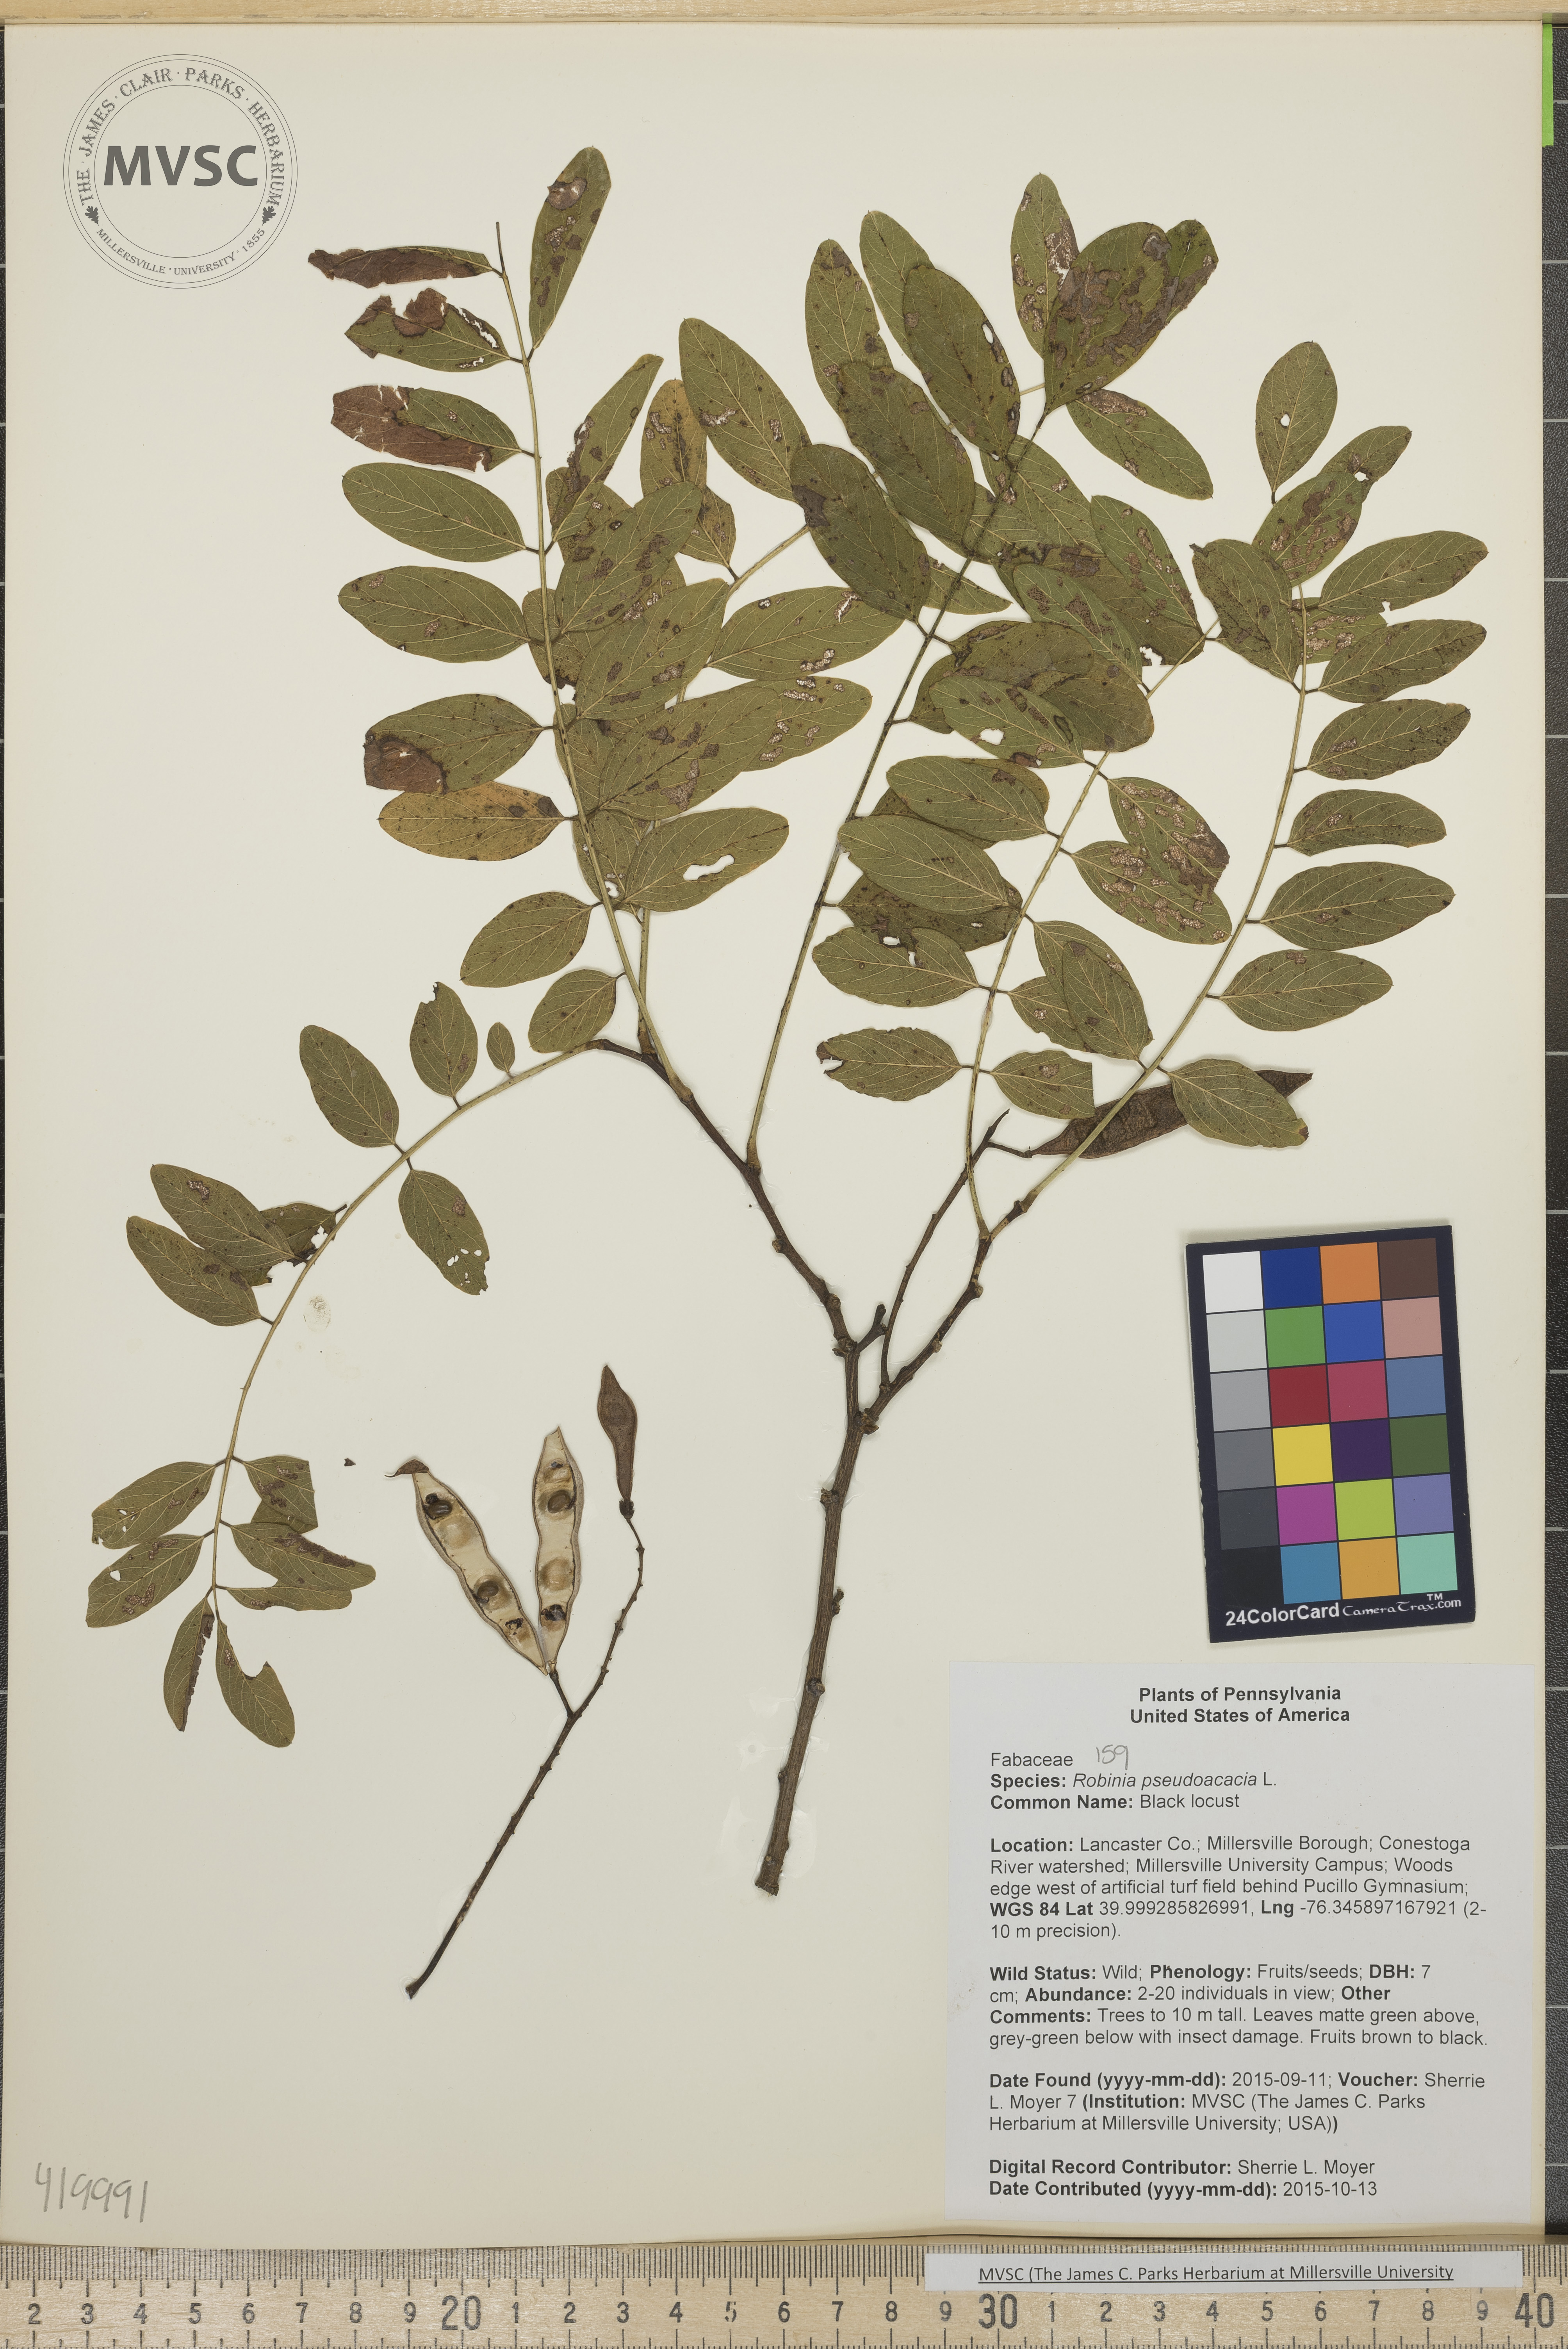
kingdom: Plantae
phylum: Tracheophyta
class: Magnoliopsida
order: Fabales
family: Fabaceae
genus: Robinia
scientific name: Robinia pseudoacacia
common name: Black locust
